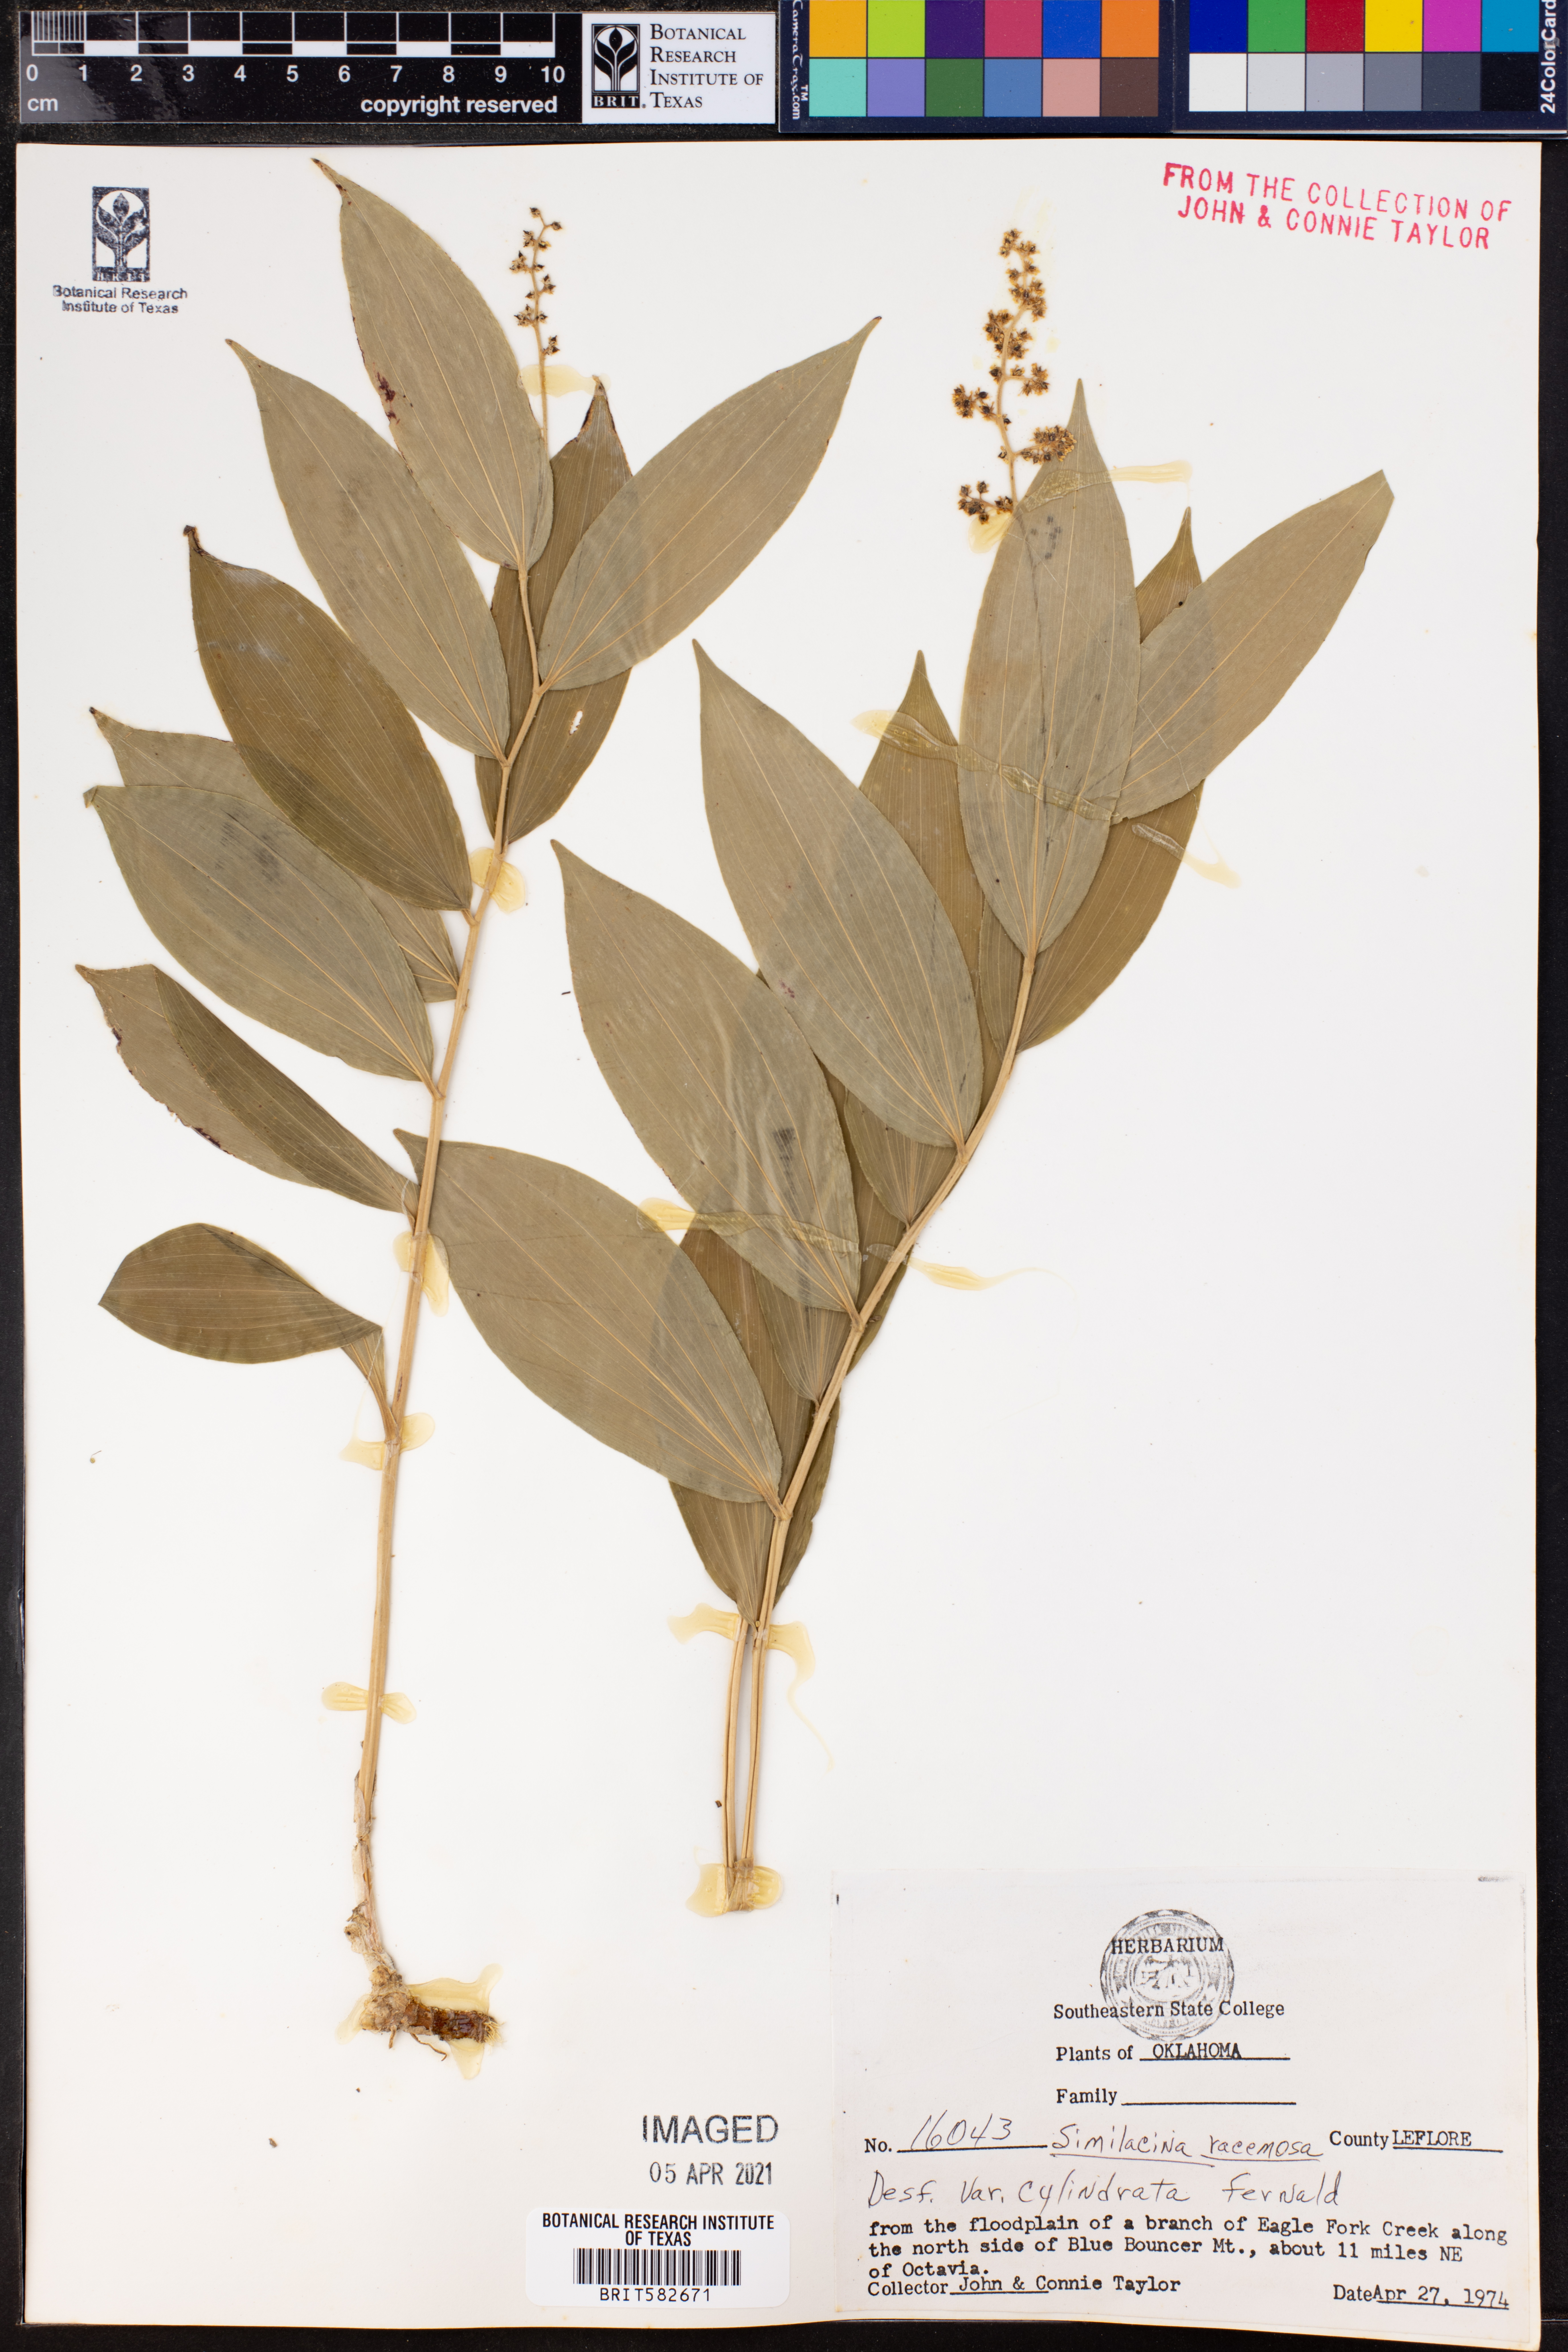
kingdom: Plantae
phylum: Tracheophyta
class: Liliopsida
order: Asparagales
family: Asparagaceae
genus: Maianthemum
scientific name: Maianthemum racemosum
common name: False spikenard
